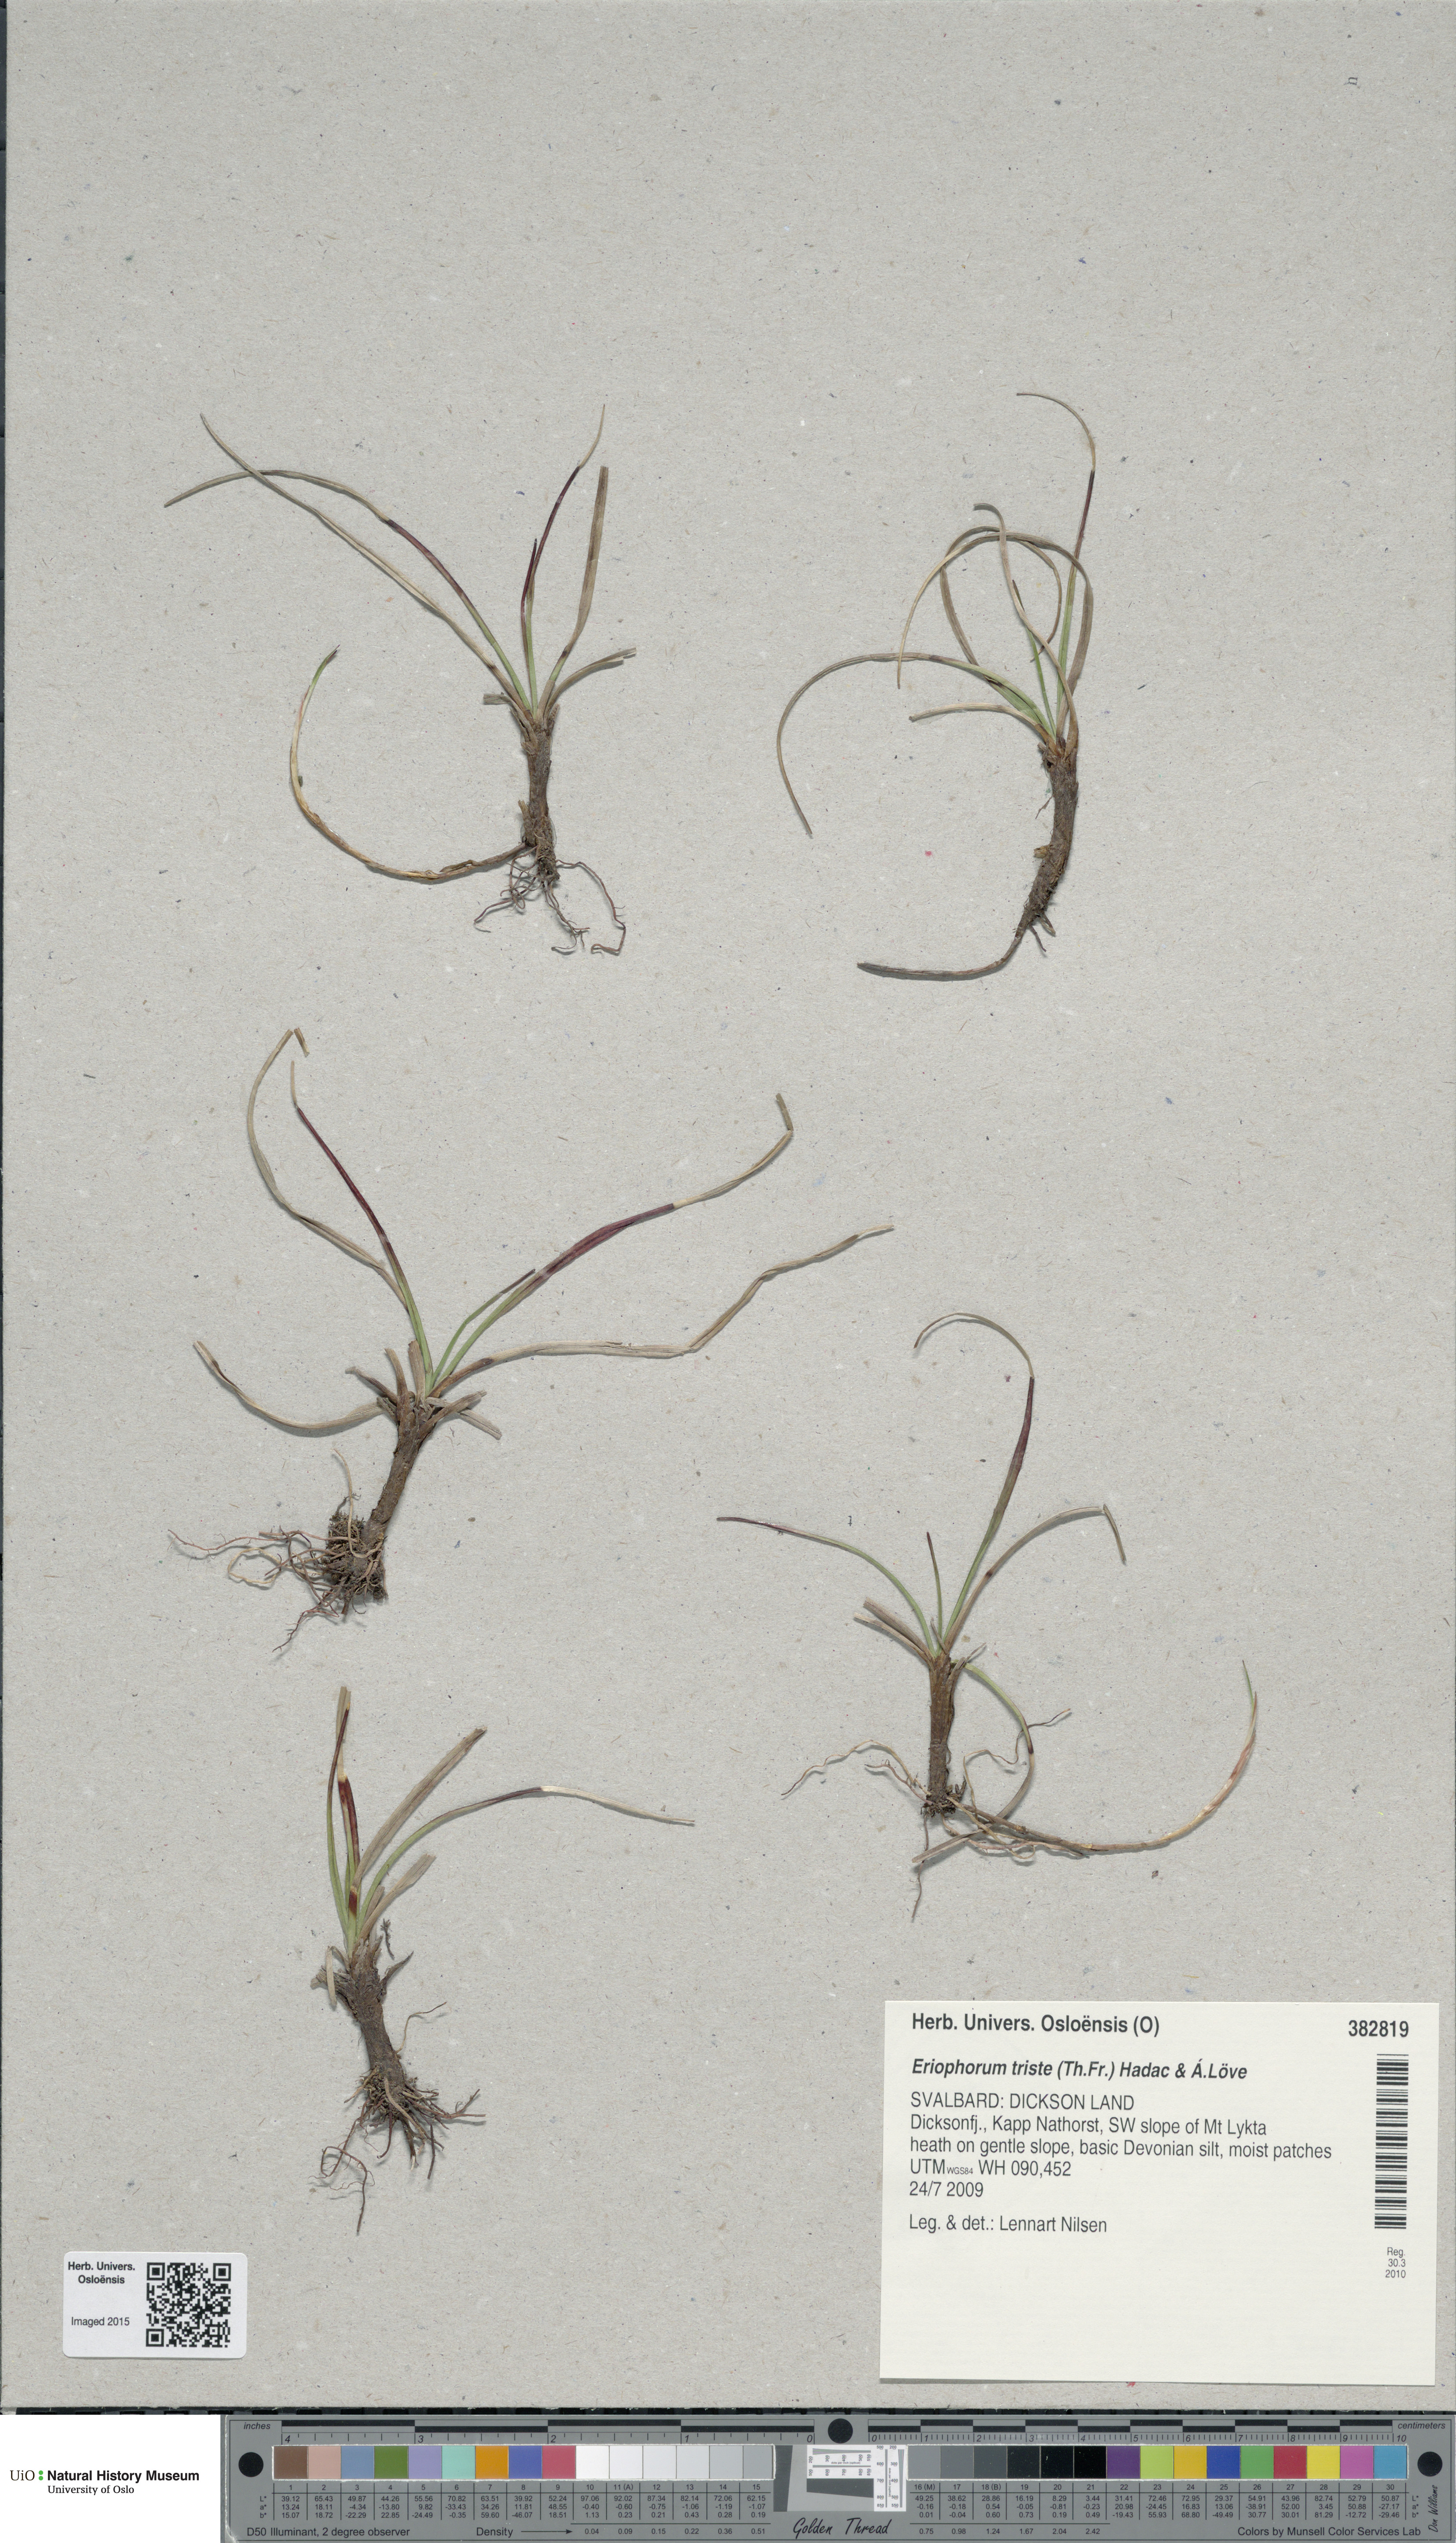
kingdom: Plantae
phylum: Tracheophyta
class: Liliopsida
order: Poales
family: Cyperaceae
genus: Eriophorum
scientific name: Eriophorum triste
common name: Tall cottongrass
